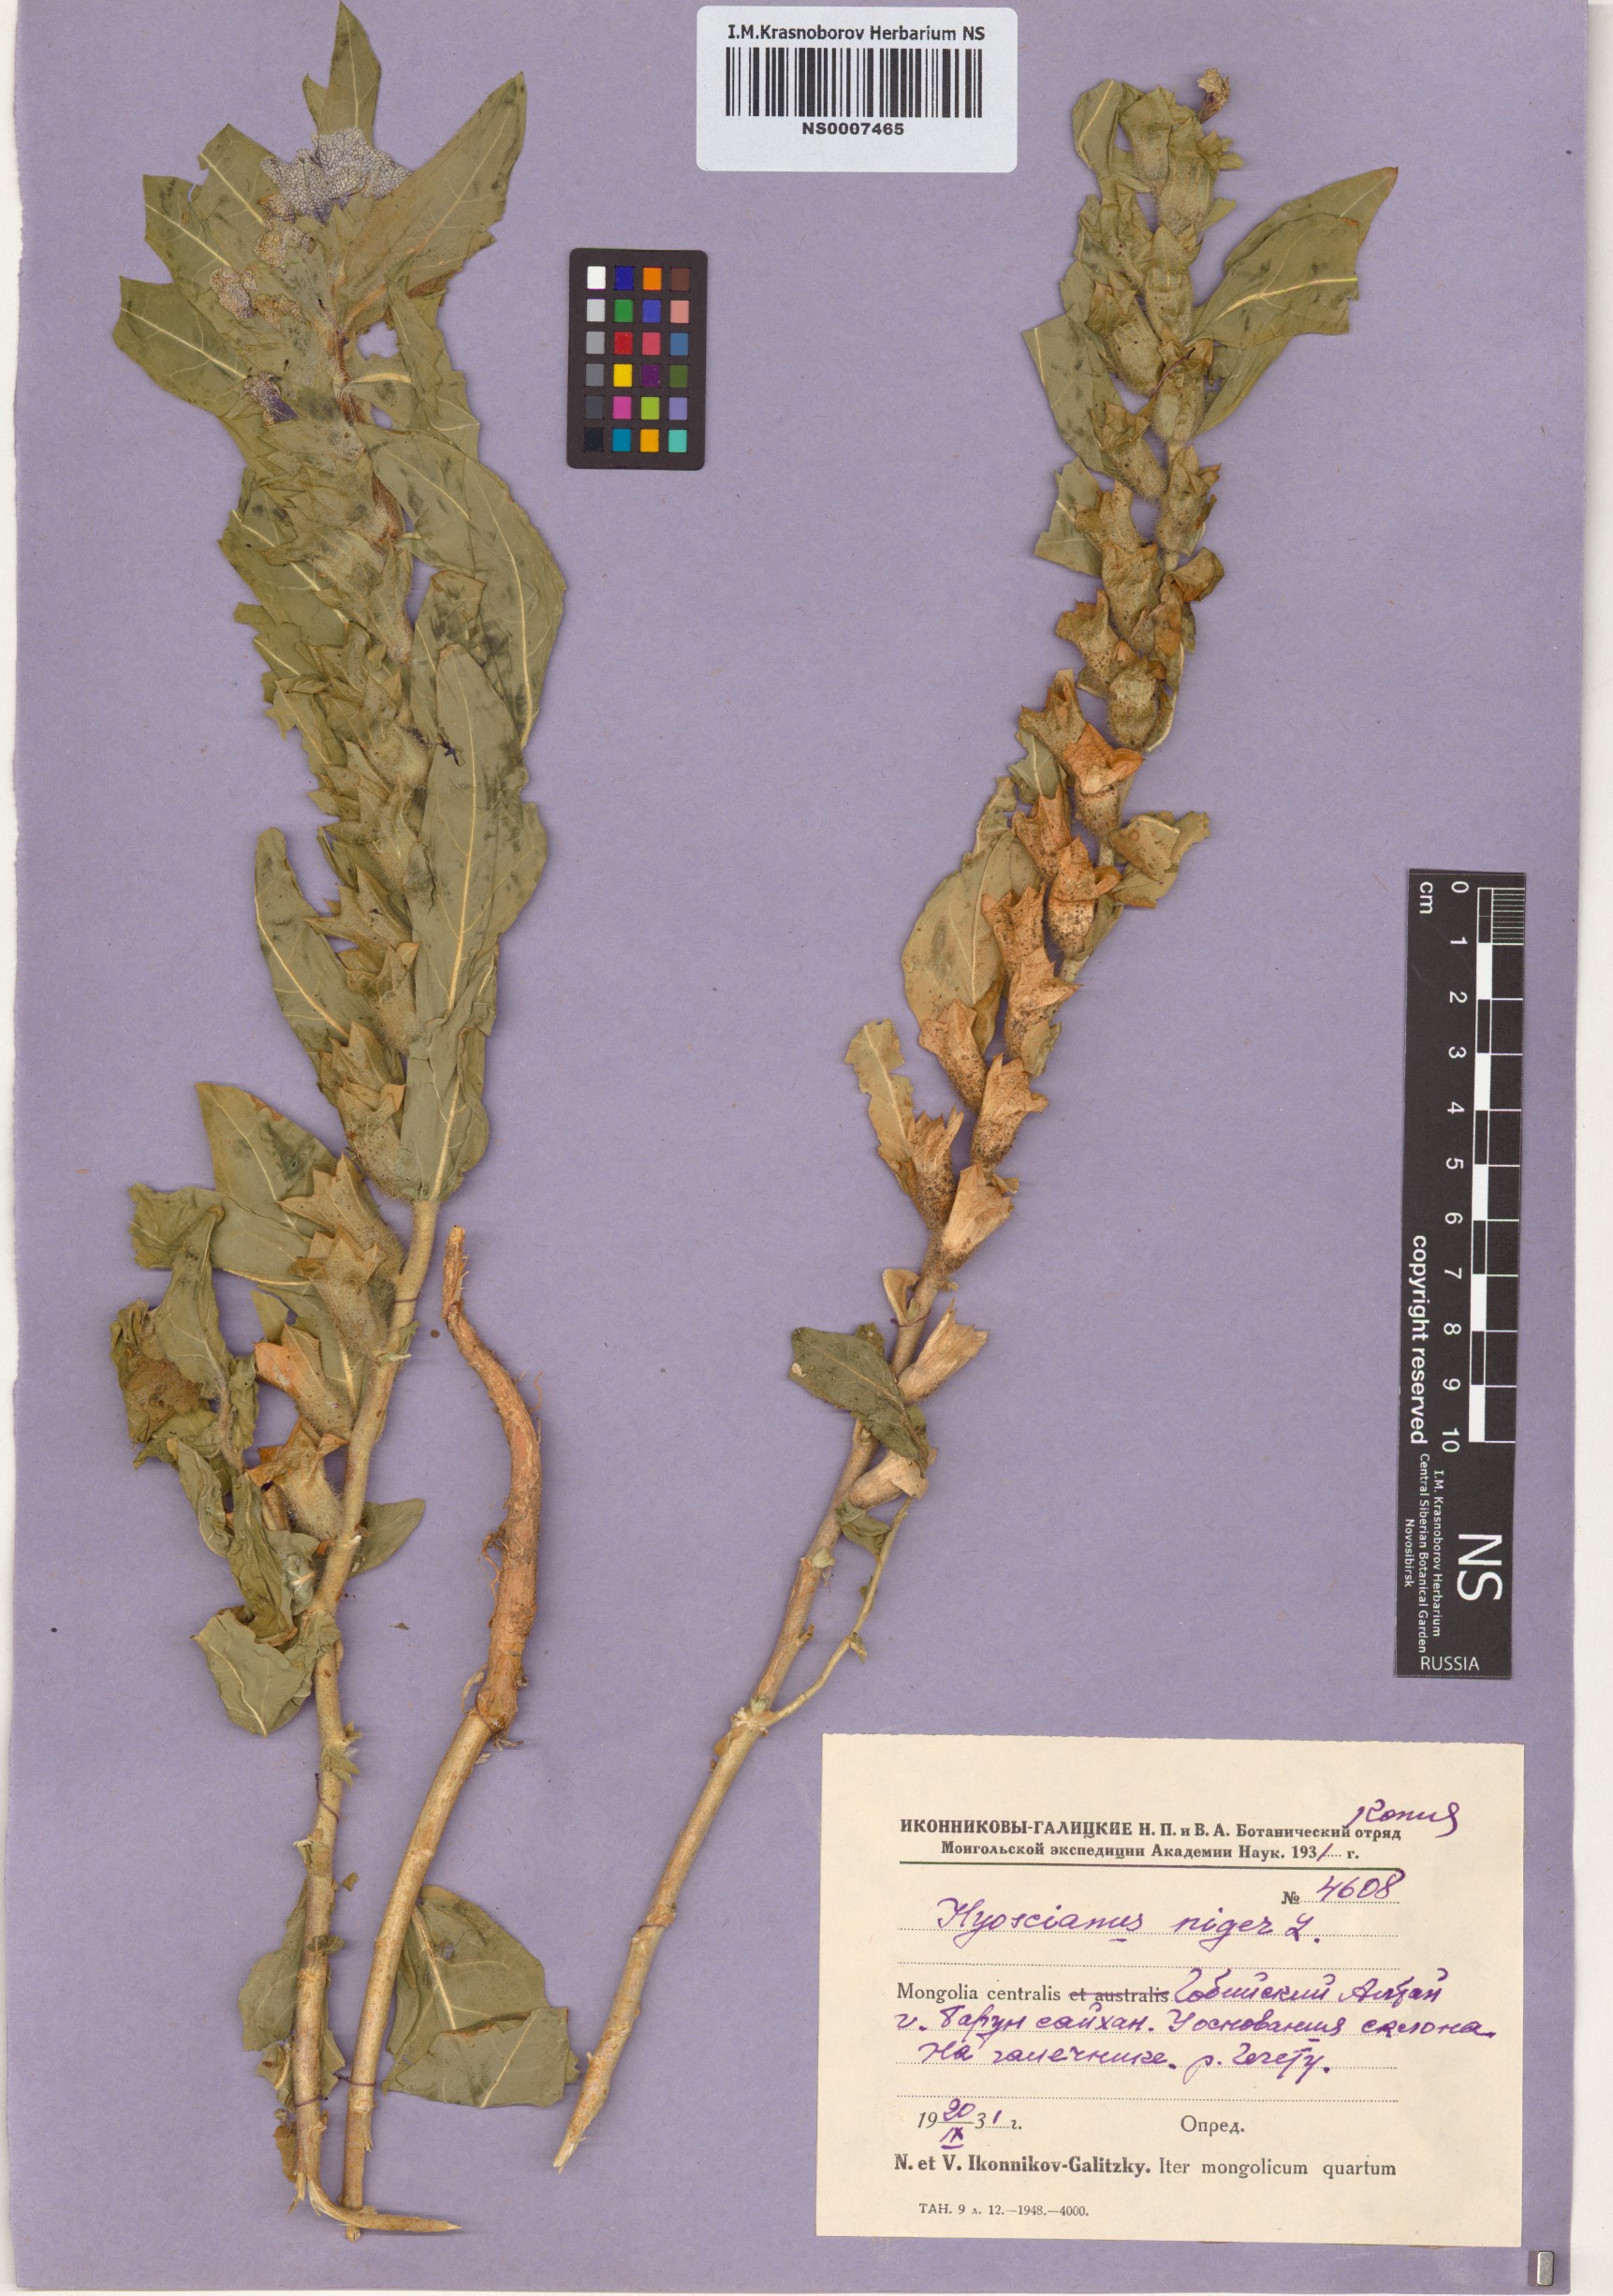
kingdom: Plantae
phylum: Tracheophyta
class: Magnoliopsida
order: Solanales
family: Solanaceae
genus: Hyoscyamus
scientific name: Hyoscyamus niger
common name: Henbane
